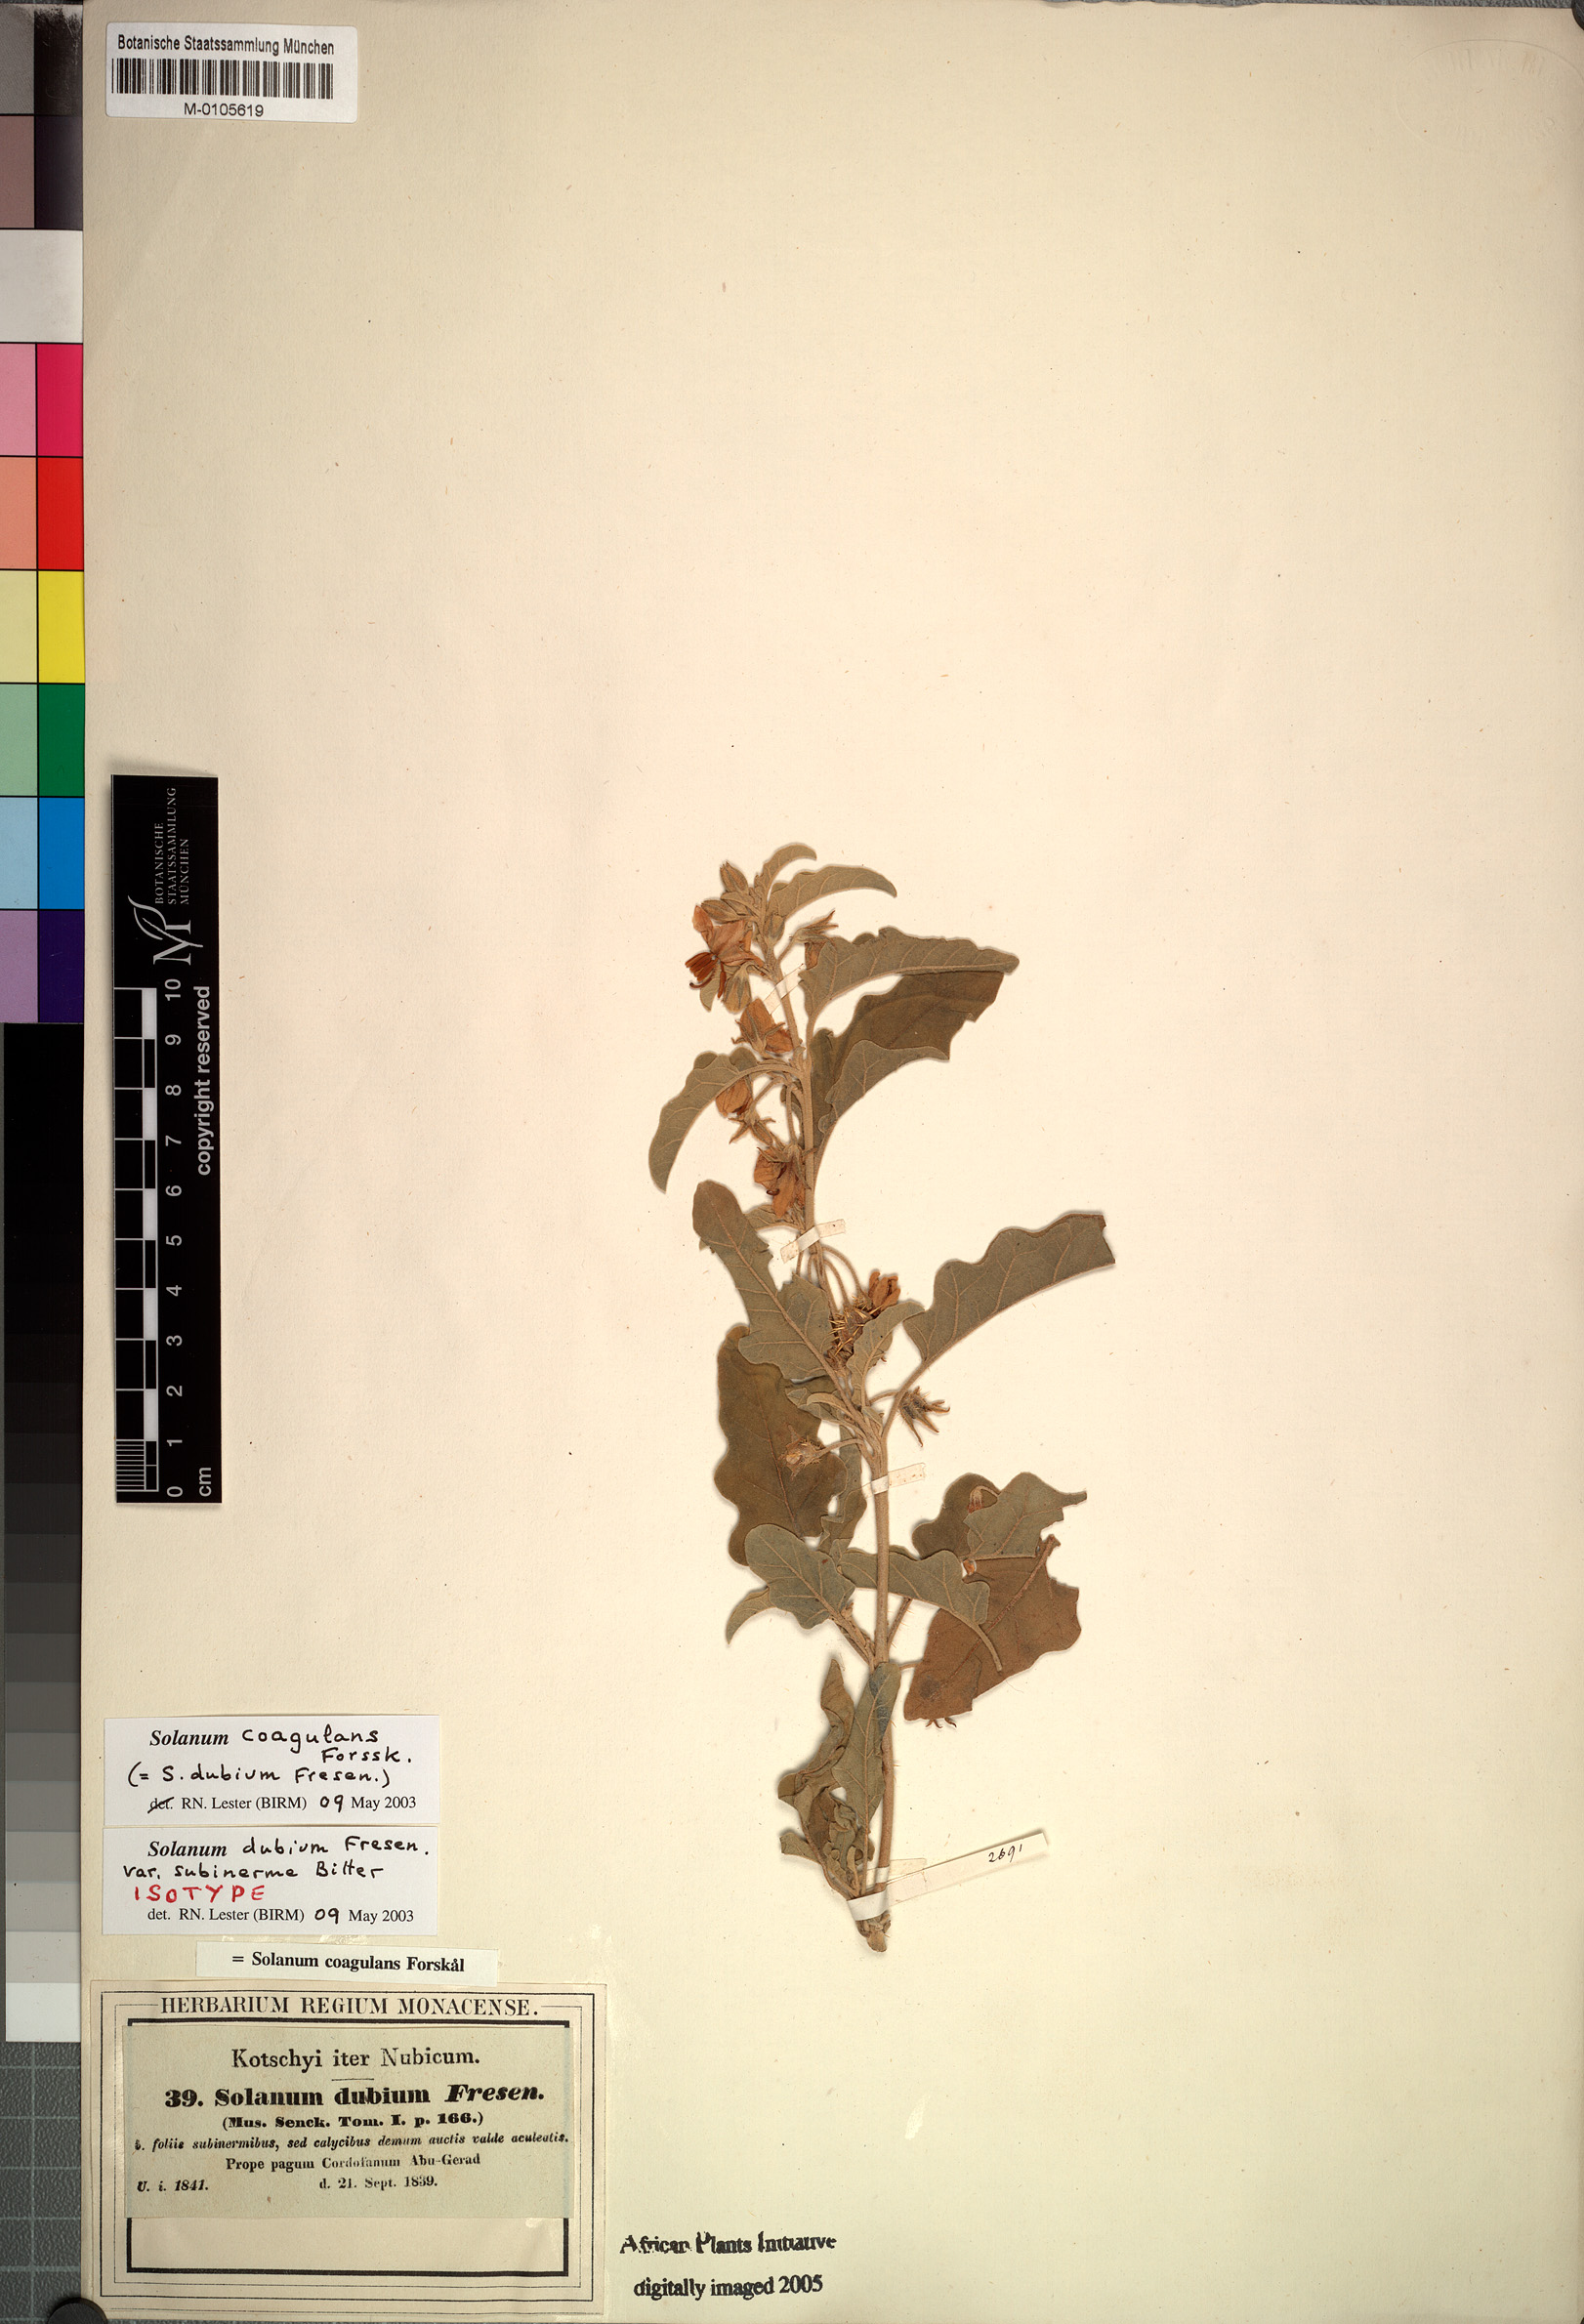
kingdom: Plantae
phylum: Tracheophyta
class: Magnoliopsida
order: Solanales
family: Solanaceae
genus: Solanum
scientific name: Solanum coagulans
